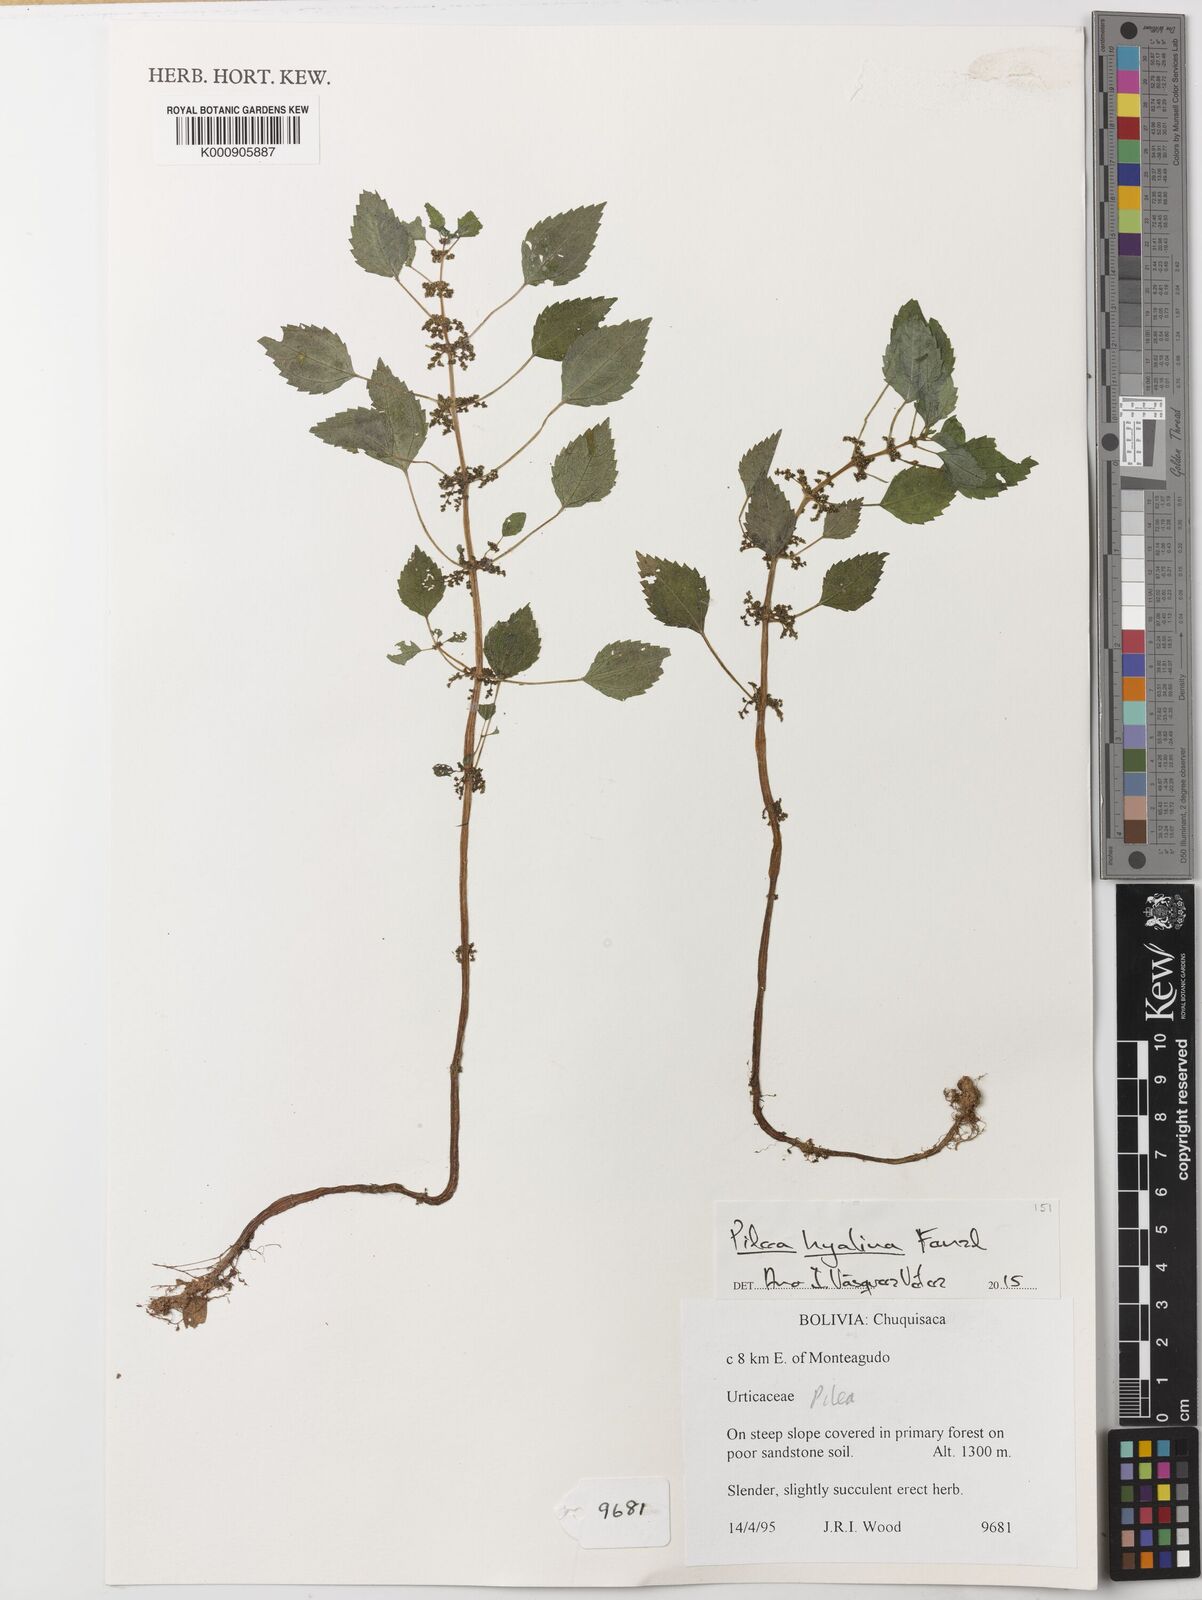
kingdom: Plantae
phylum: Tracheophyta
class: Magnoliopsida
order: Rosales
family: Urticaceae
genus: Pilea
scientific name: Pilea hyalina
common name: Virdrillo
